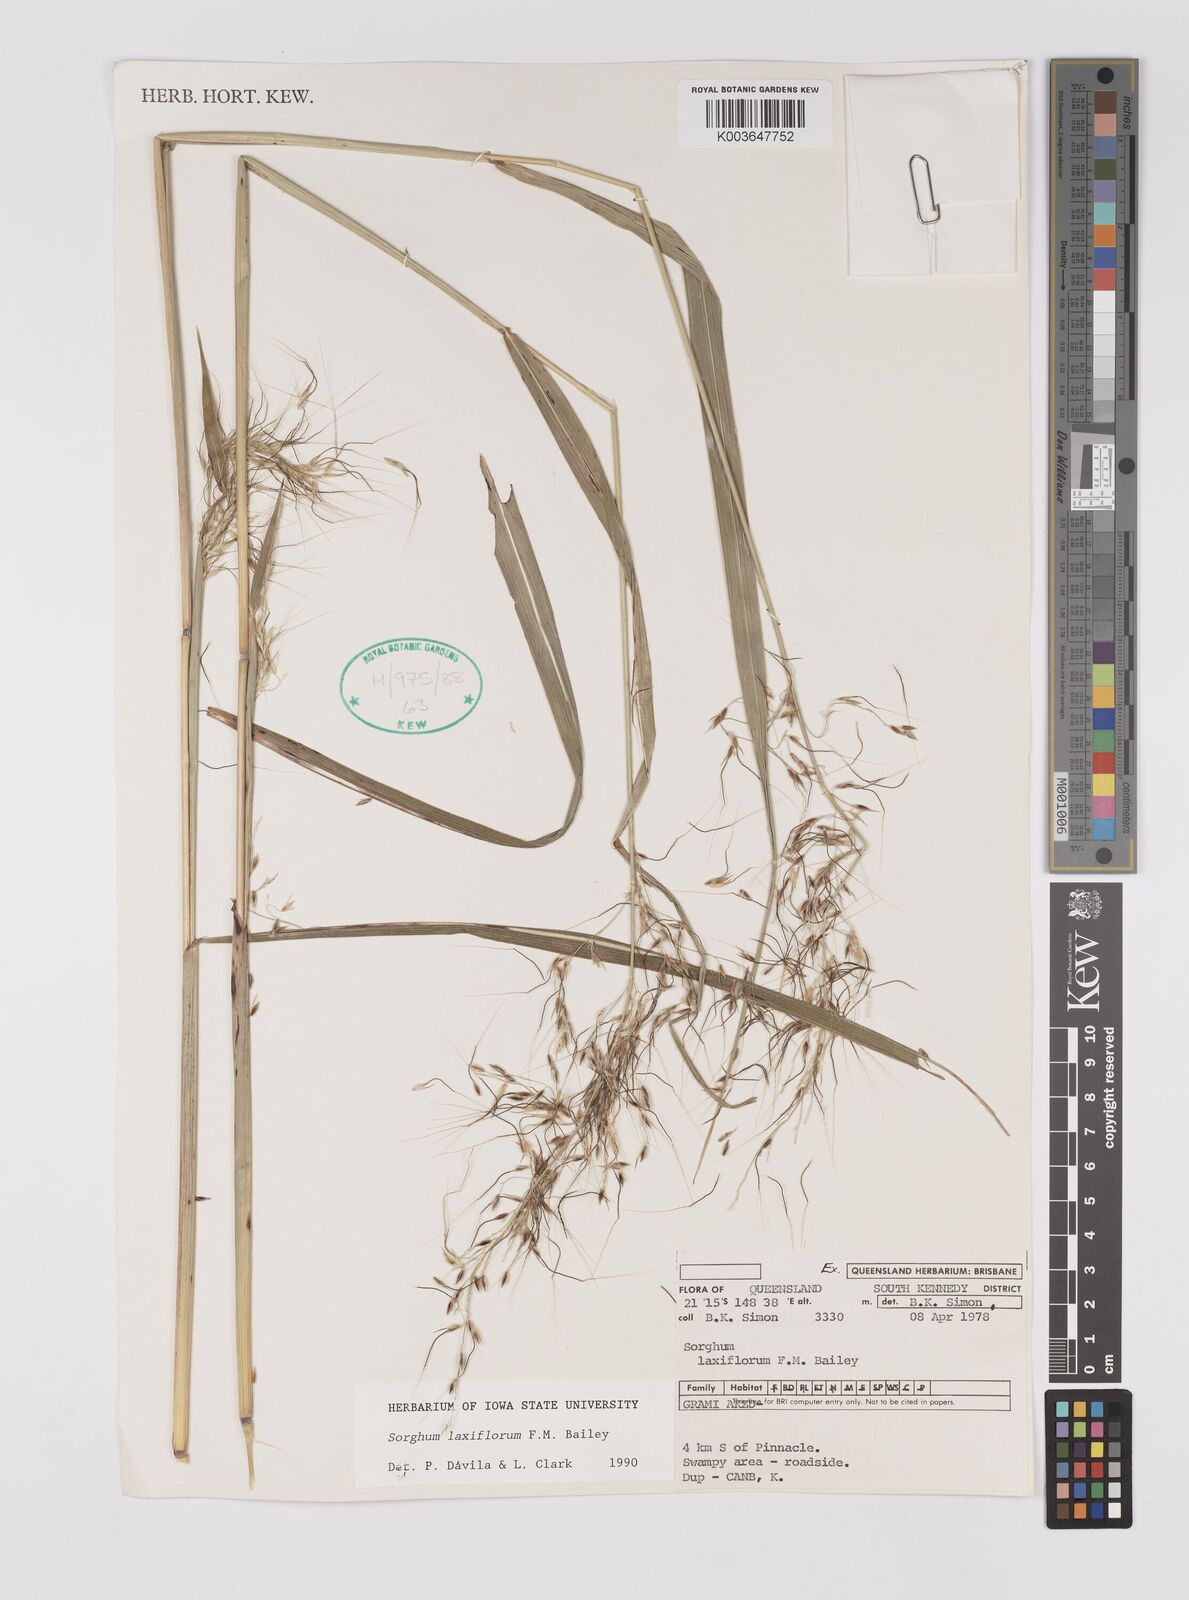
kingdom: Plantae
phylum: Tracheophyta
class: Liliopsida
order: Poales
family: Poaceae
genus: Sorghum
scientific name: Sorghum laxiflorum
